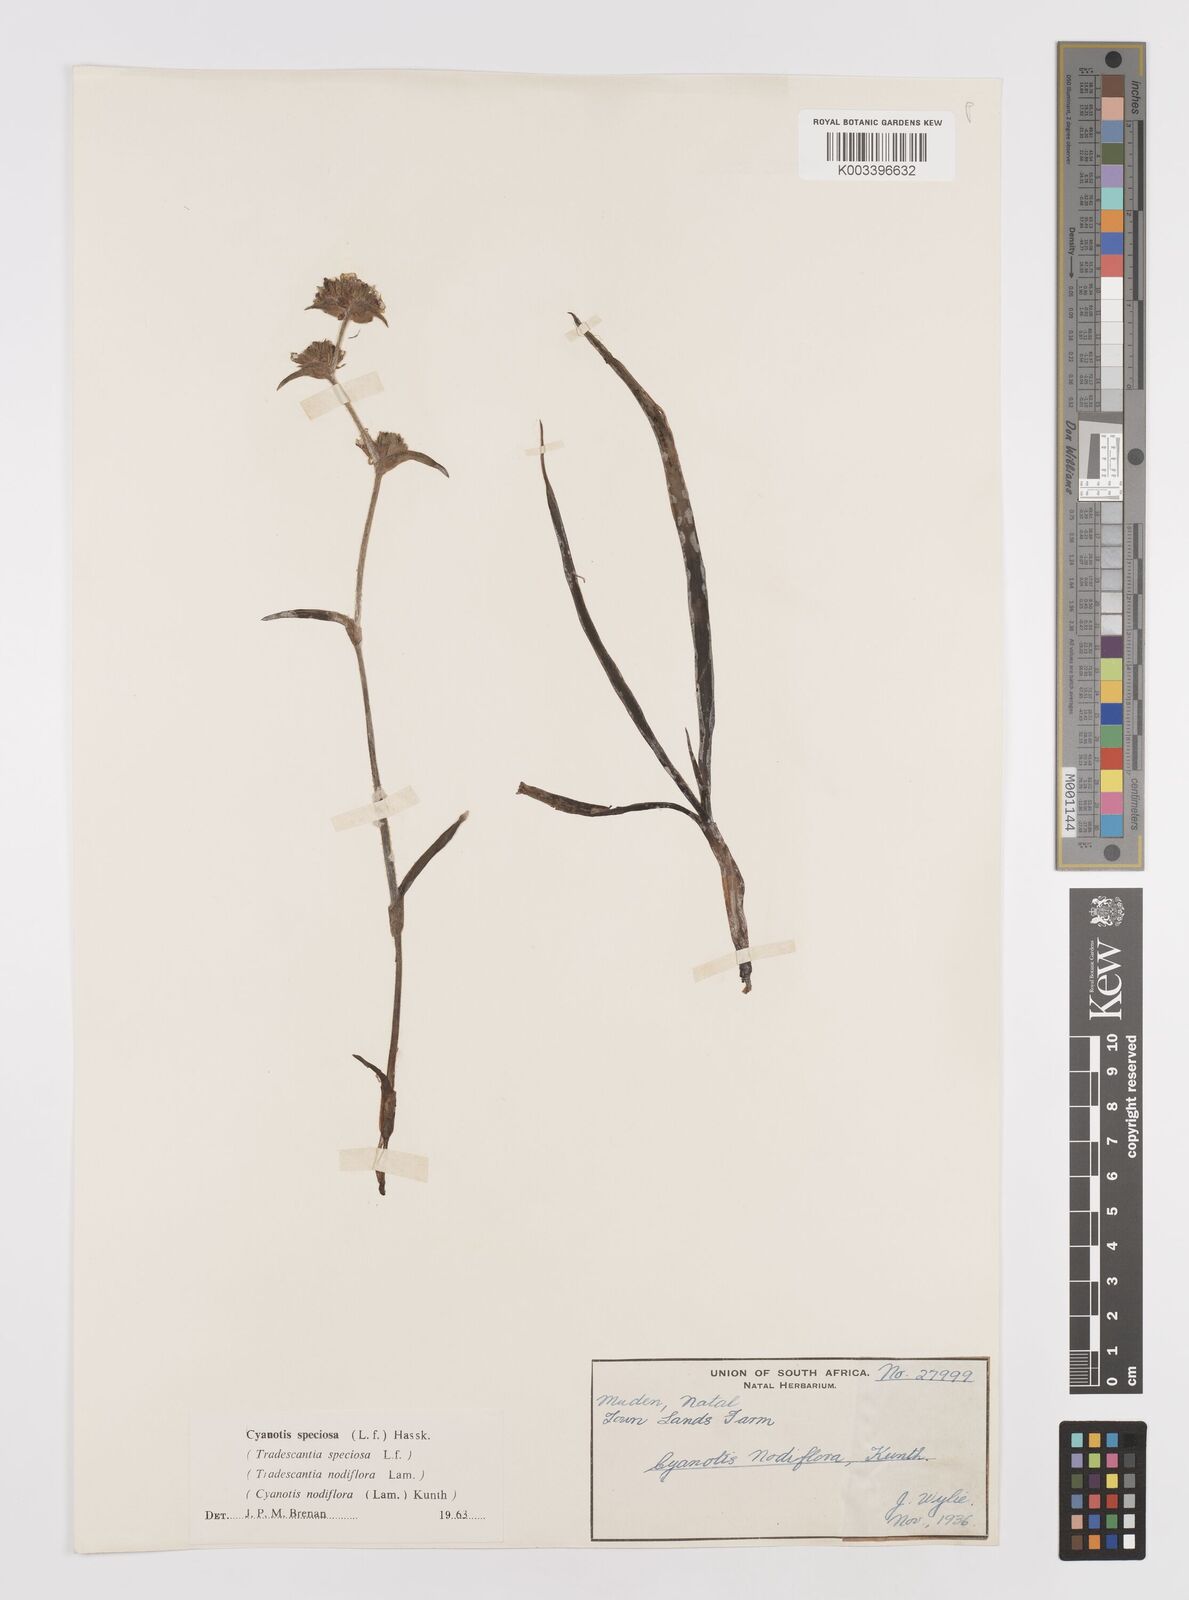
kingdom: Plantae
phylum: Tracheophyta
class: Liliopsida
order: Commelinales
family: Commelinaceae
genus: Cyanotis
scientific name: Cyanotis speciosa
